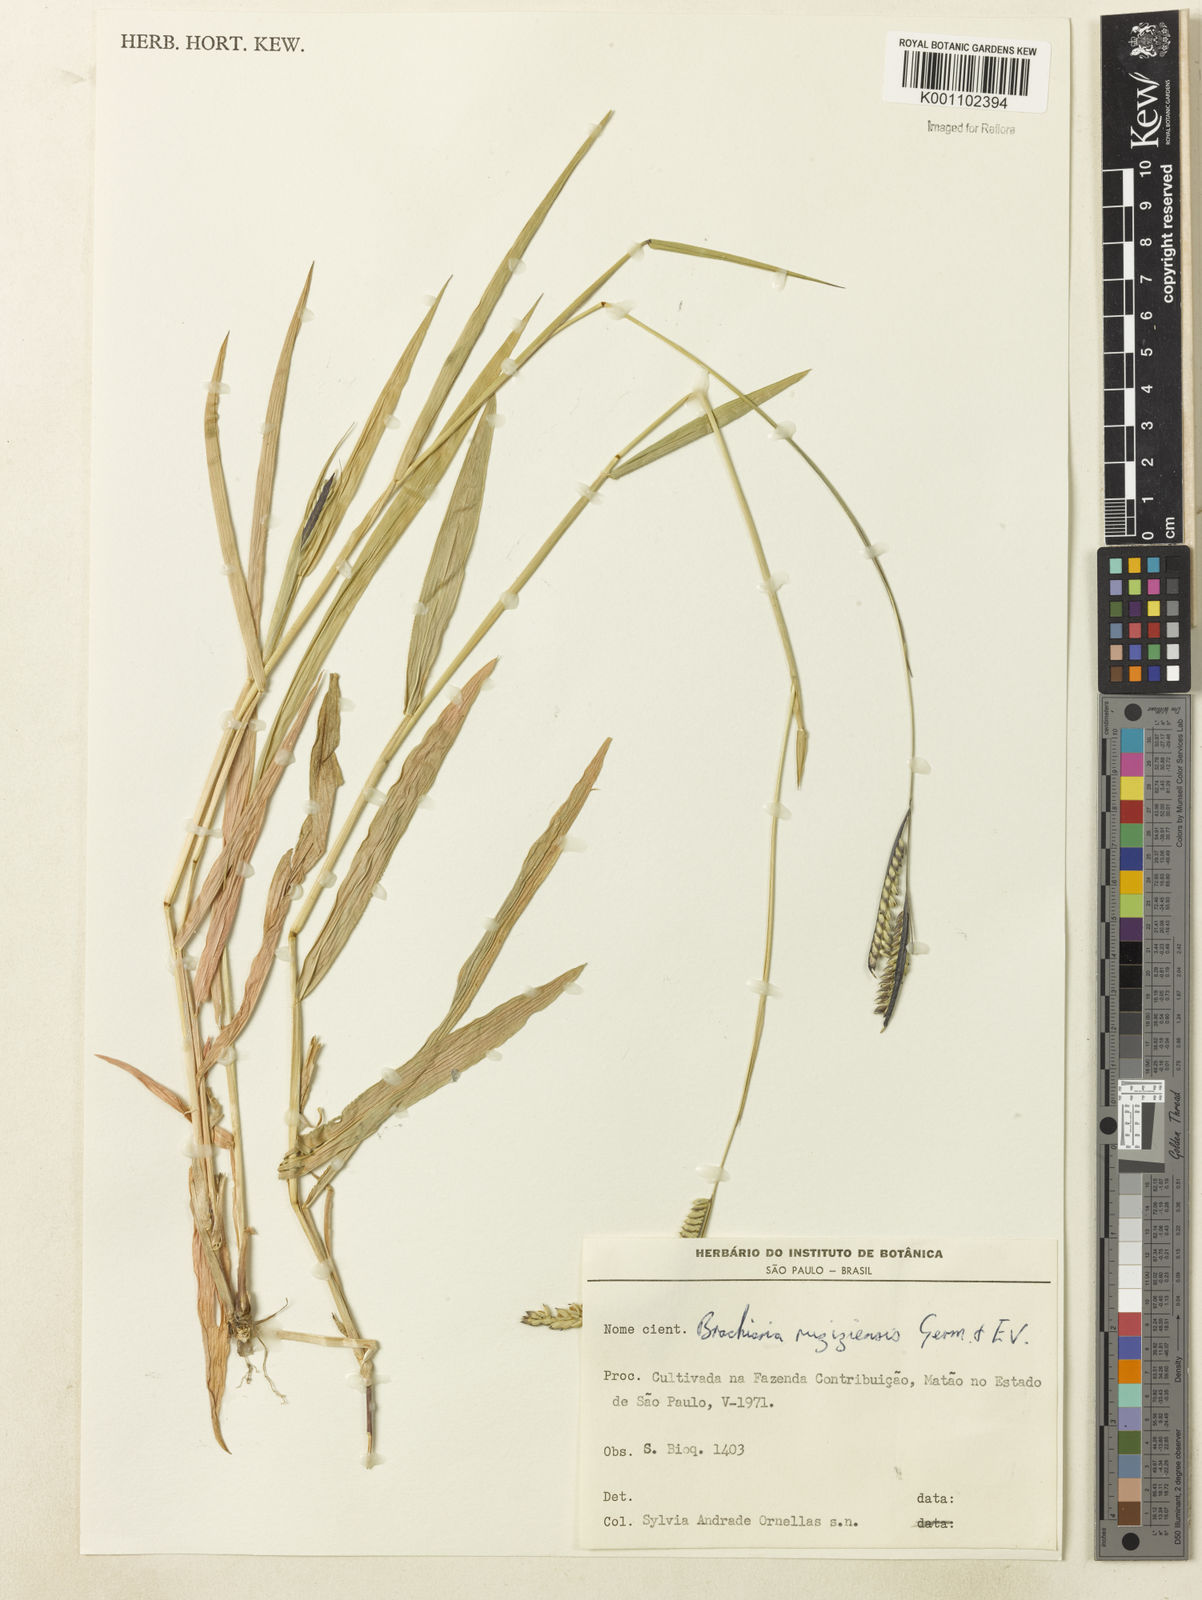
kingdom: Plantae
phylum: Tracheophyta
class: Liliopsida
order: Poales
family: Poaceae
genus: Urochloa
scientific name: Urochloa eminii
